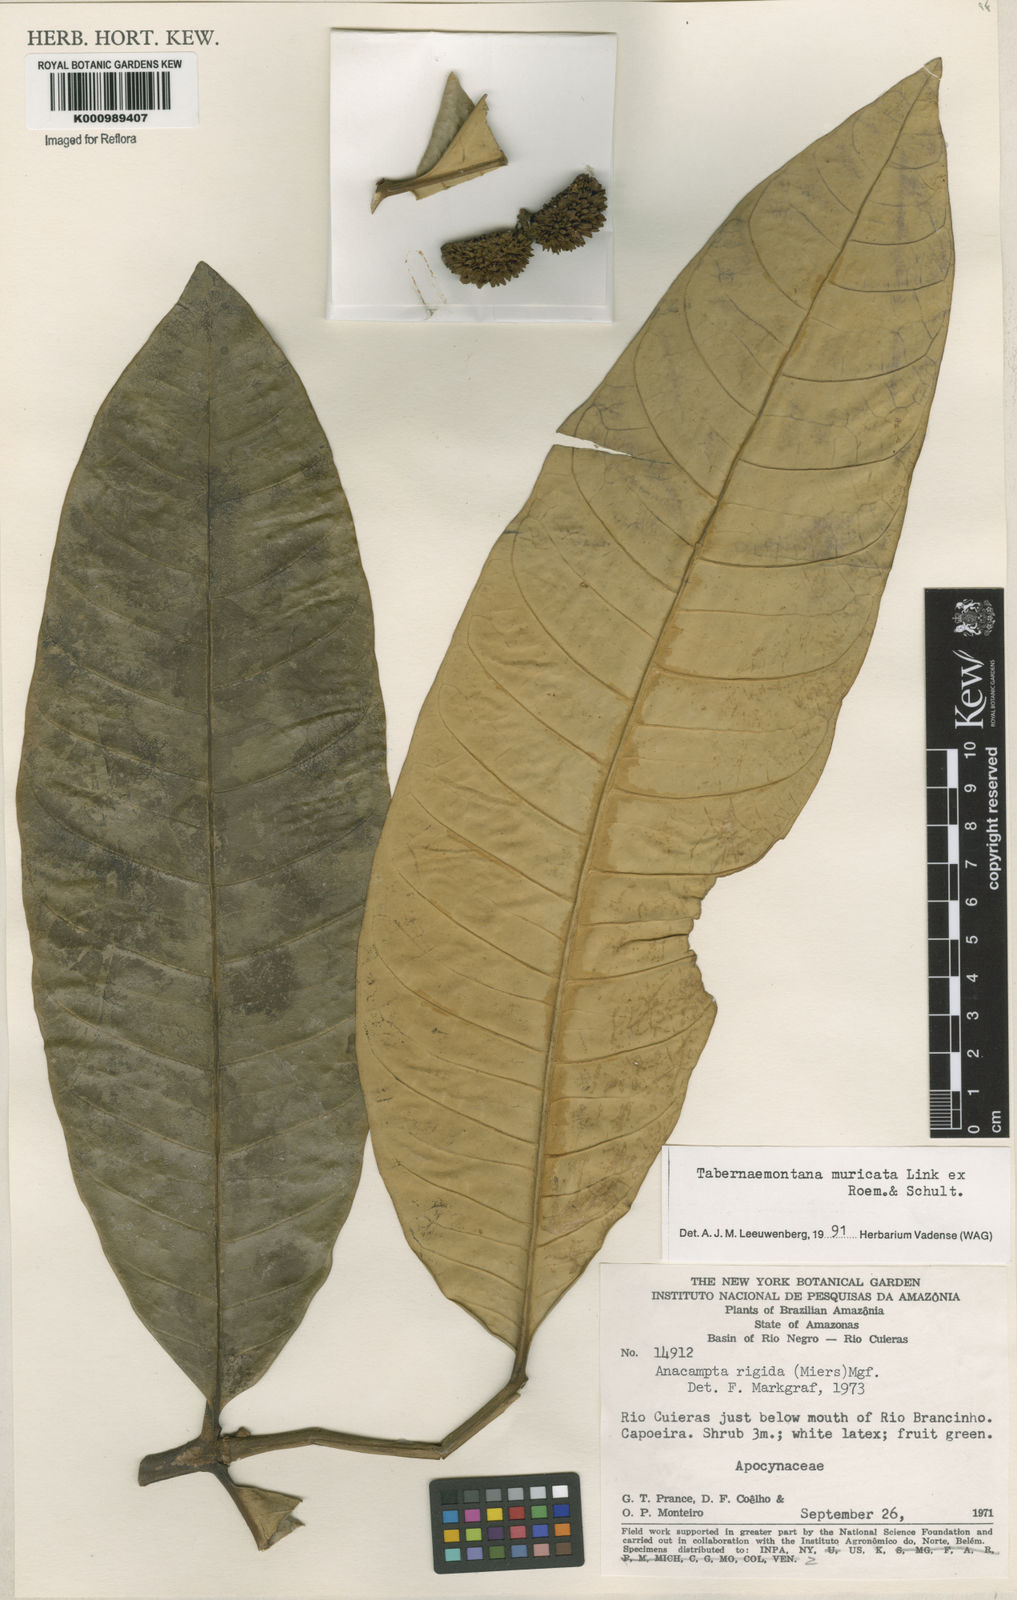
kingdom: Plantae
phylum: Tracheophyta
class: Magnoliopsida
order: Gentianales
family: Apocynaceae
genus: Tabernaemontana
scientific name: Tabernaemontana muricata
